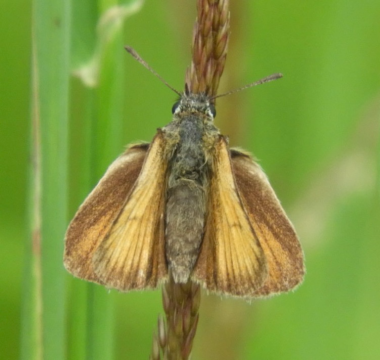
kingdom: Animalia
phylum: Arthropoda
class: Insecta
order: Lepidoptera
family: Hesperiidae
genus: Thymelicus
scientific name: Thymelicus lineola
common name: European Skipper
